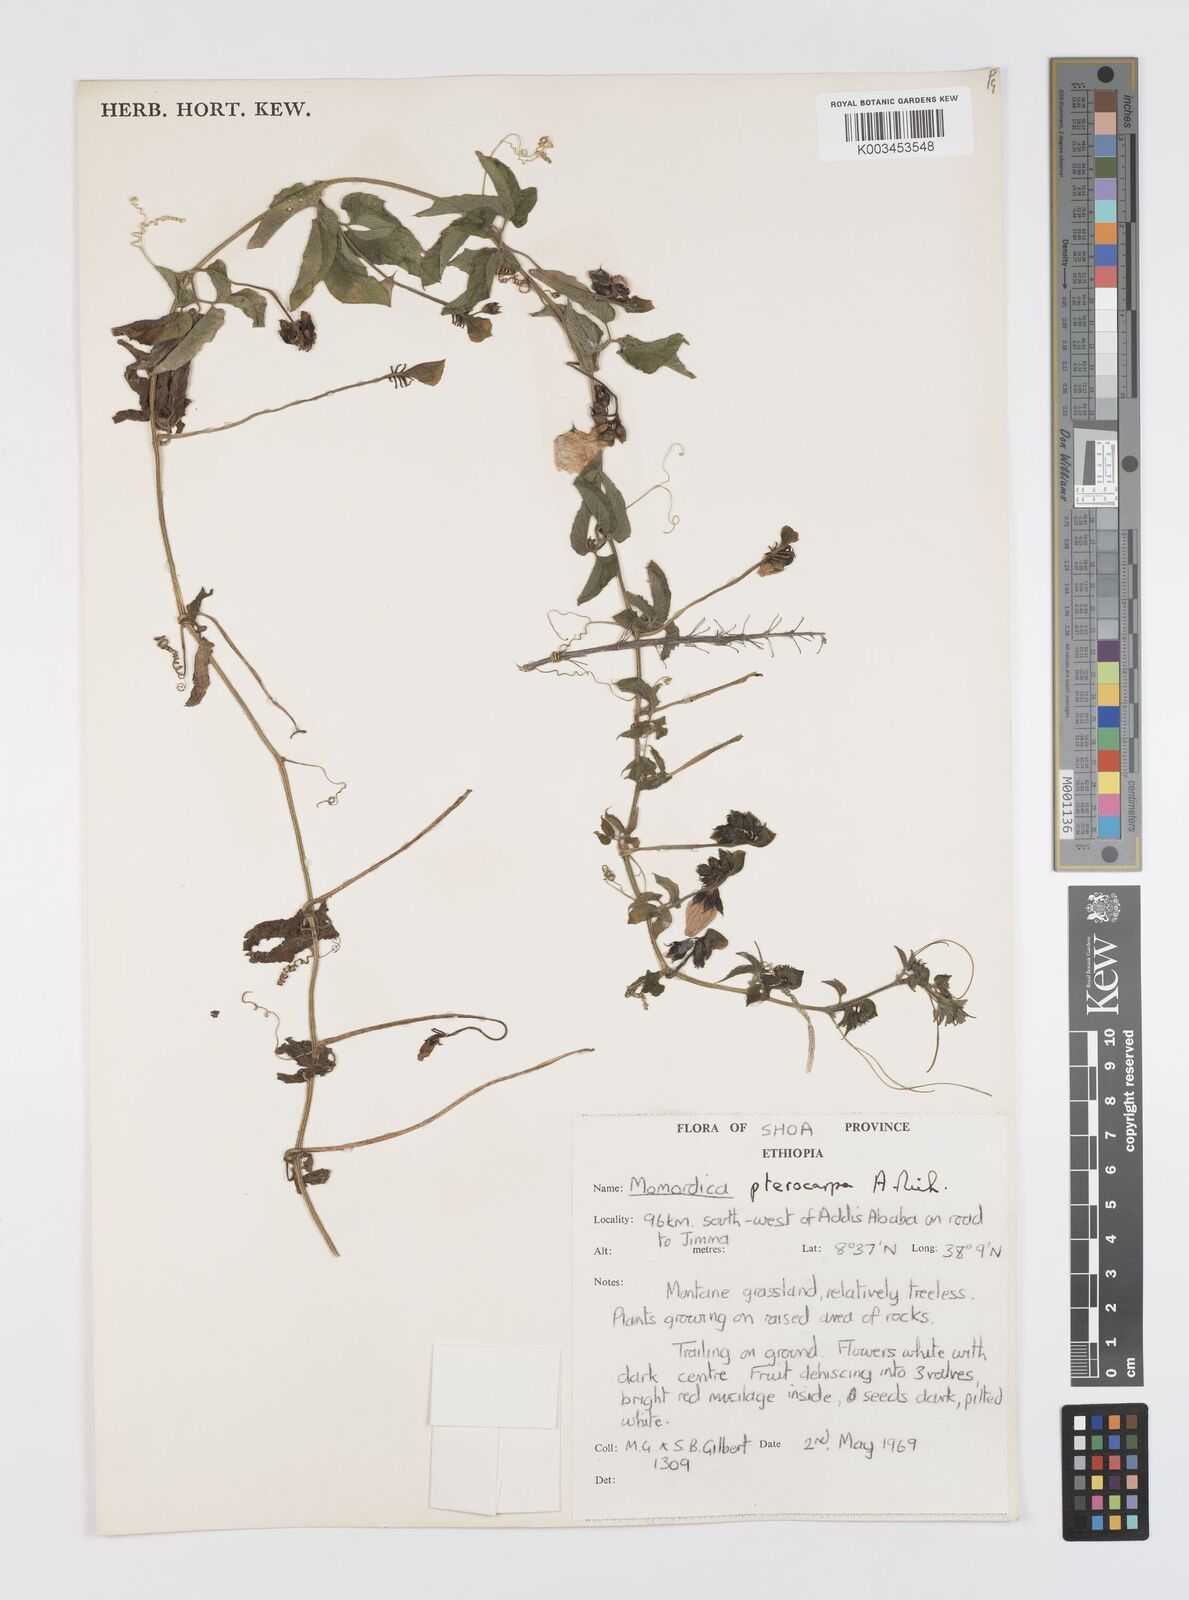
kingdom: Plantae
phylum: Tracheophyta
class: Magnoliopsida
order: Cucurbitales
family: Cucurbitaceae
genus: Momordica
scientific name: Momordica pterocarpa
